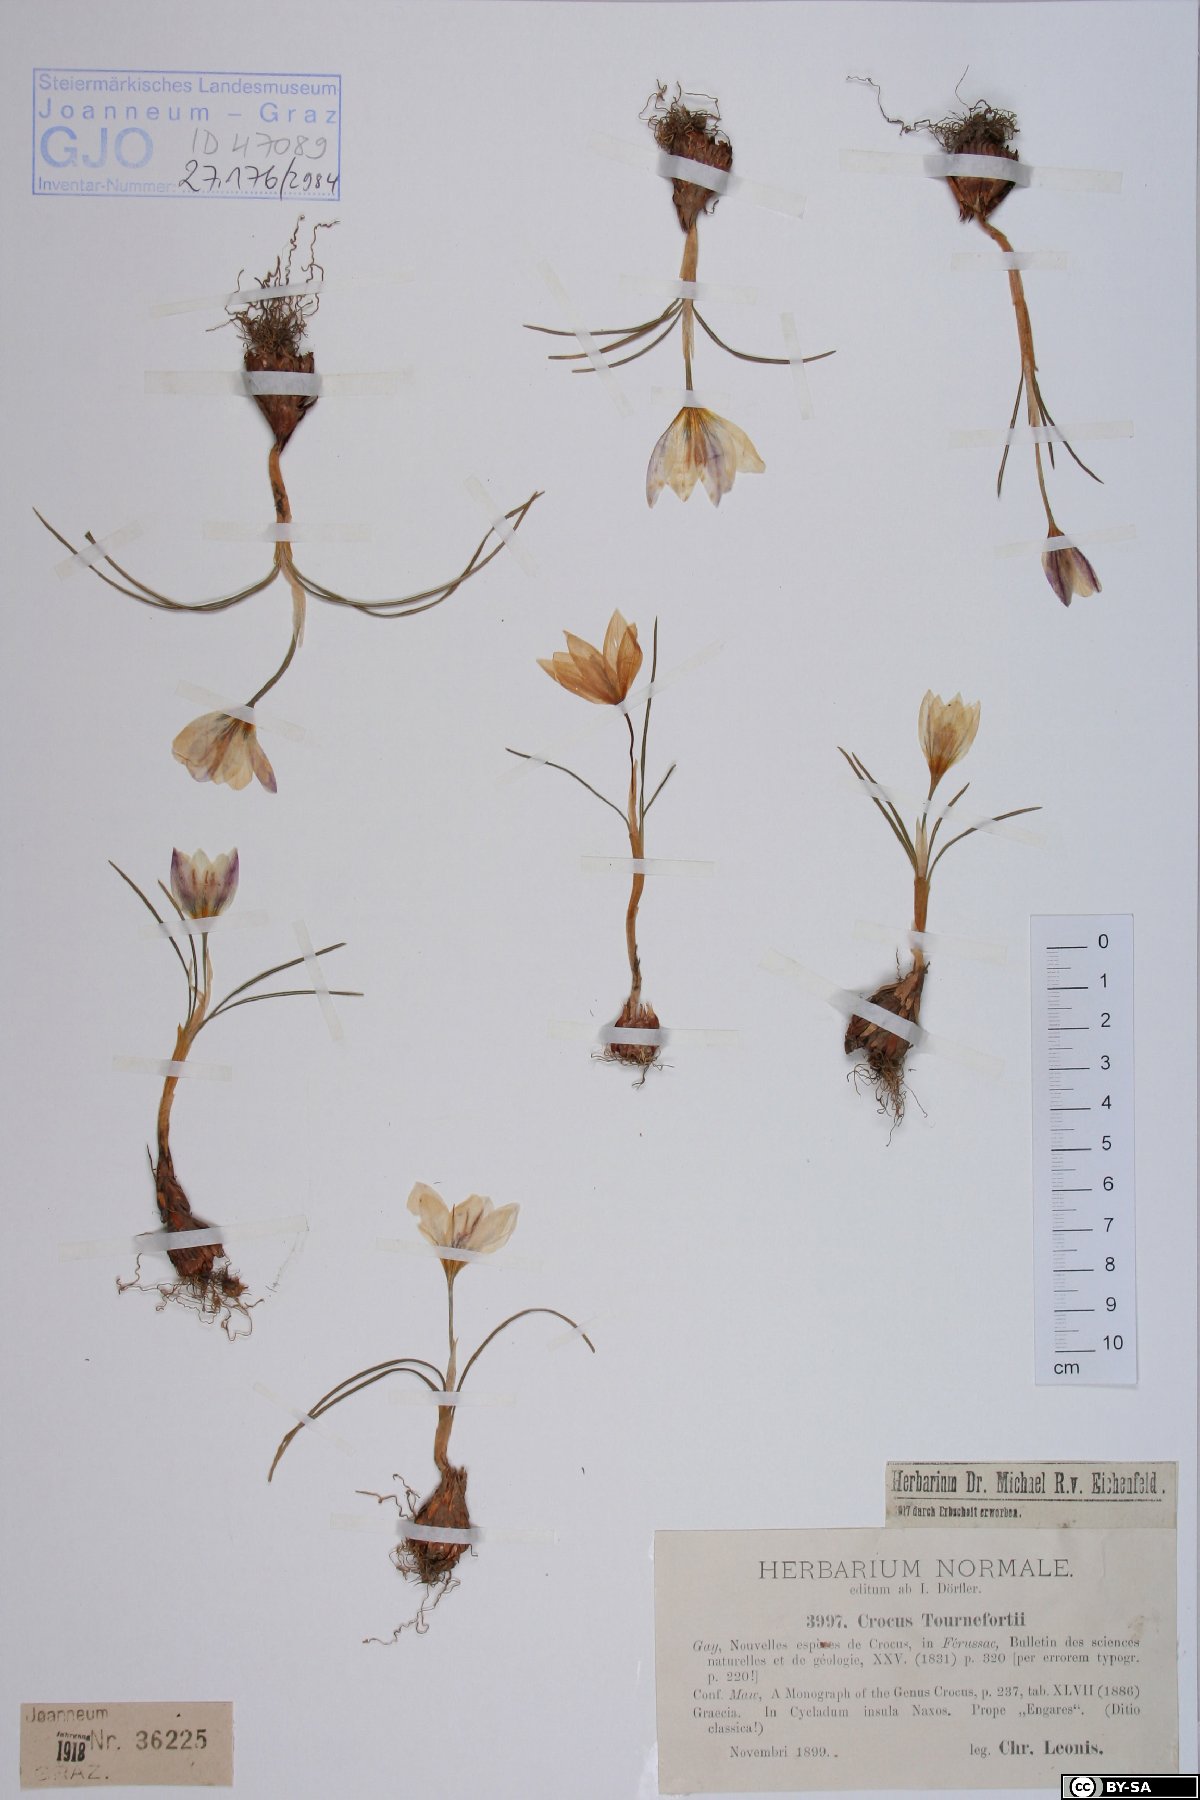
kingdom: Plantae
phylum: Tracheophyta
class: Liliopsida
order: Asparagales
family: Iridaceae
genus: Crocus
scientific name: Crocus tournefortii
